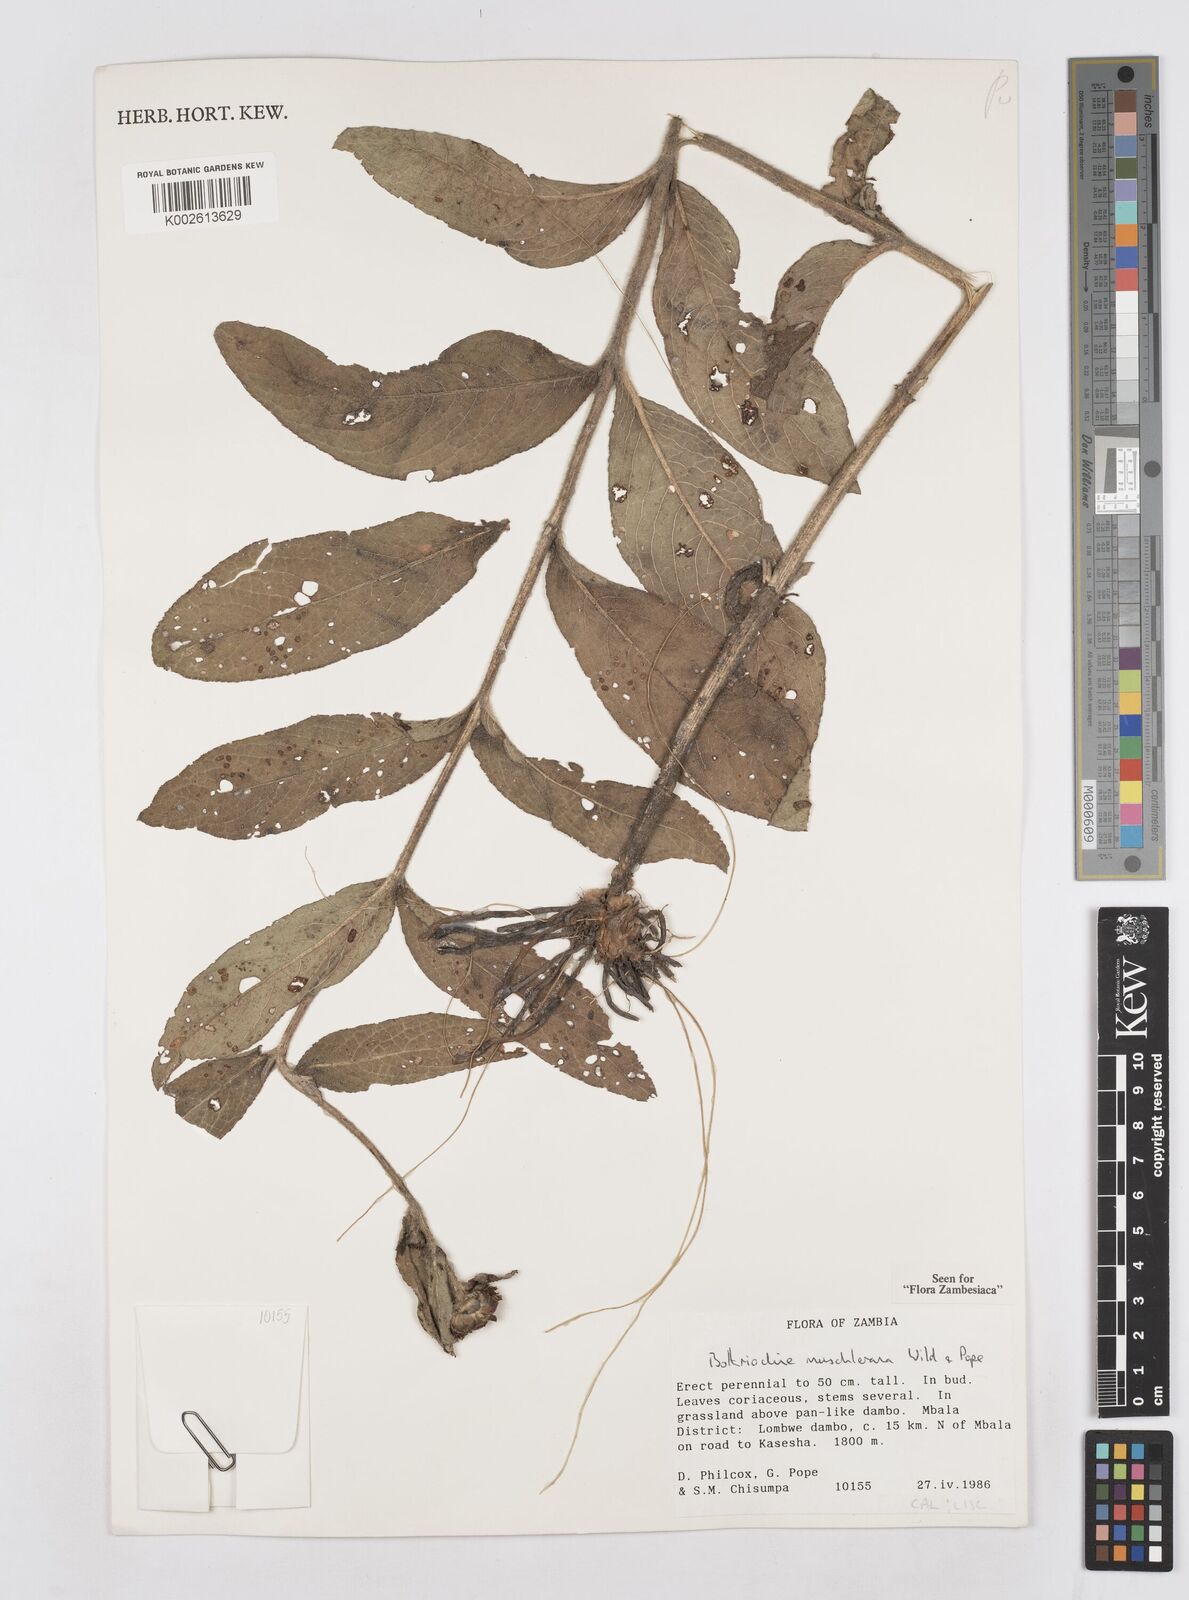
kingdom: Plantae
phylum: Tracheophyta
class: Magnoliopsida
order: Asterales
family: Asteraceae
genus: Bothriocline
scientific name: Bothriocline muschleriana
